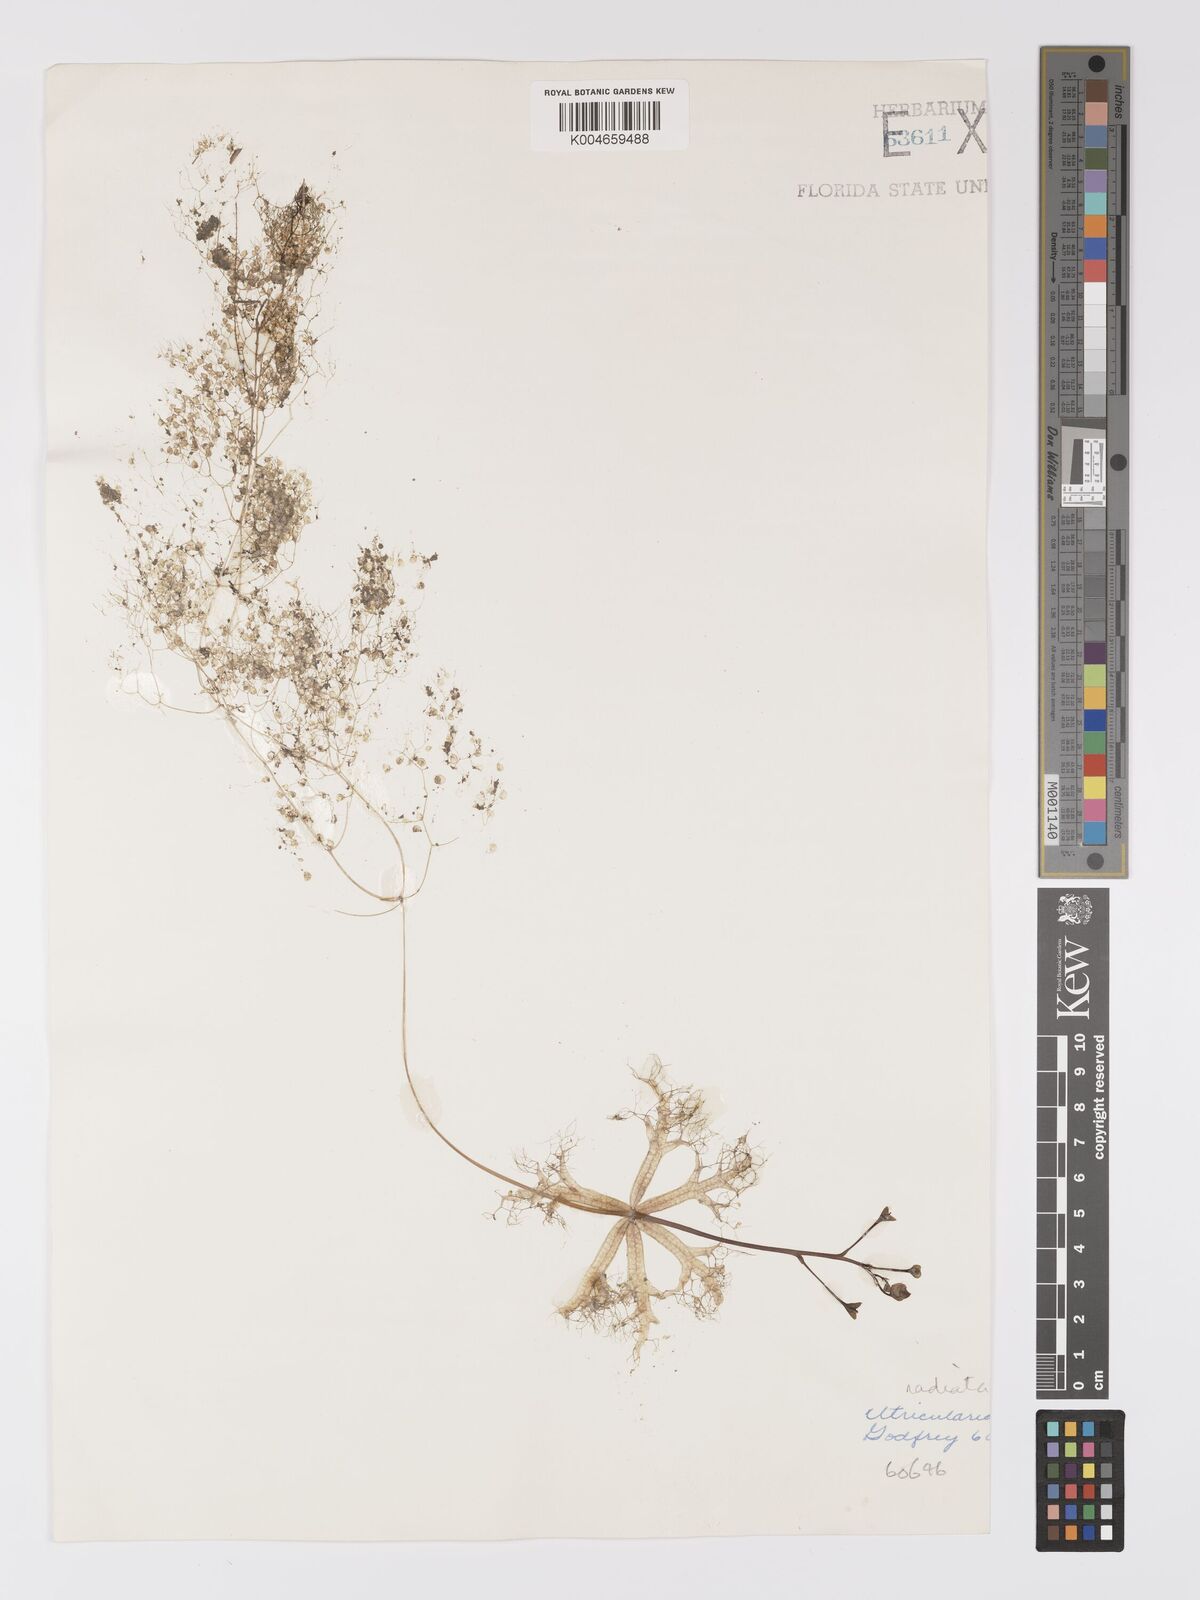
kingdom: Plantae
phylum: Tracheophyta
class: Magnoliopsida
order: Lamiales
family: Lentibulariaceae
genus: Utricularia
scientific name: Utricularia radiata
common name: Floating bladderwort
